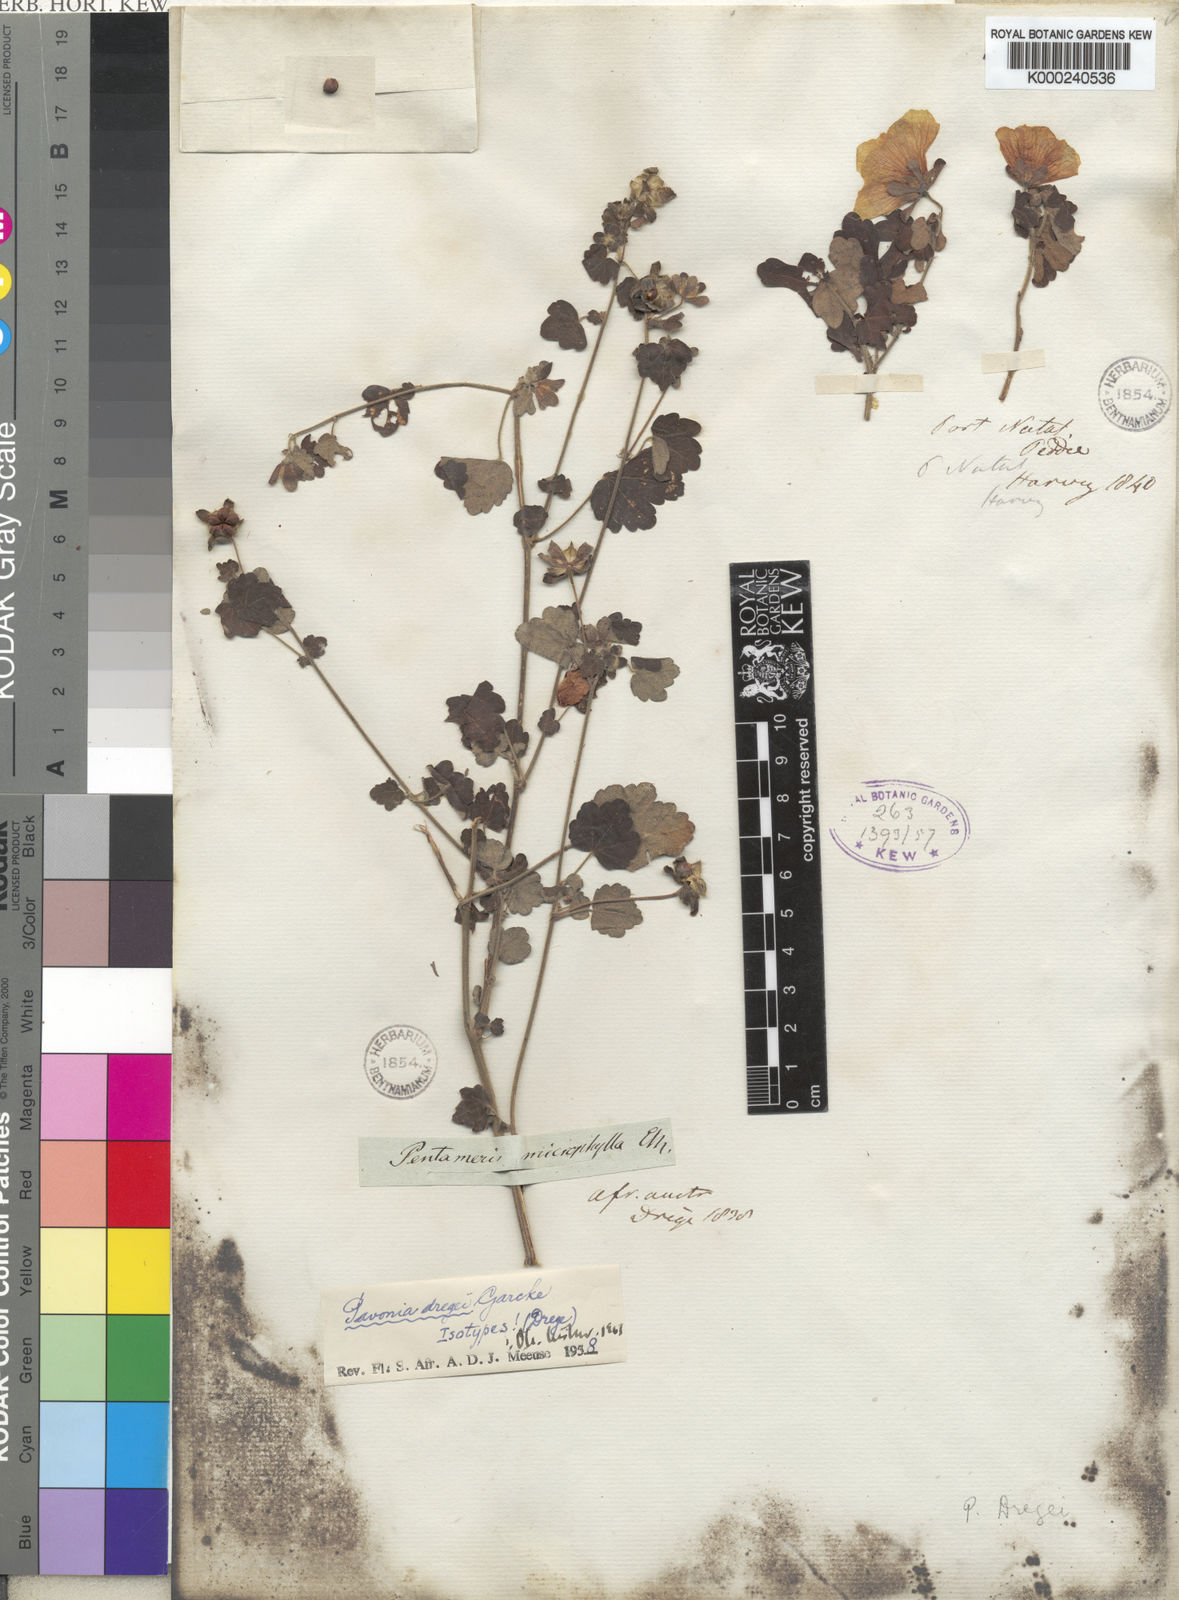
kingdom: Plantae
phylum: Tracheophyta
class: Magnoliopsida
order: Malvales
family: Malvaceae
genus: Pavonia
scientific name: Pavonia dregei
